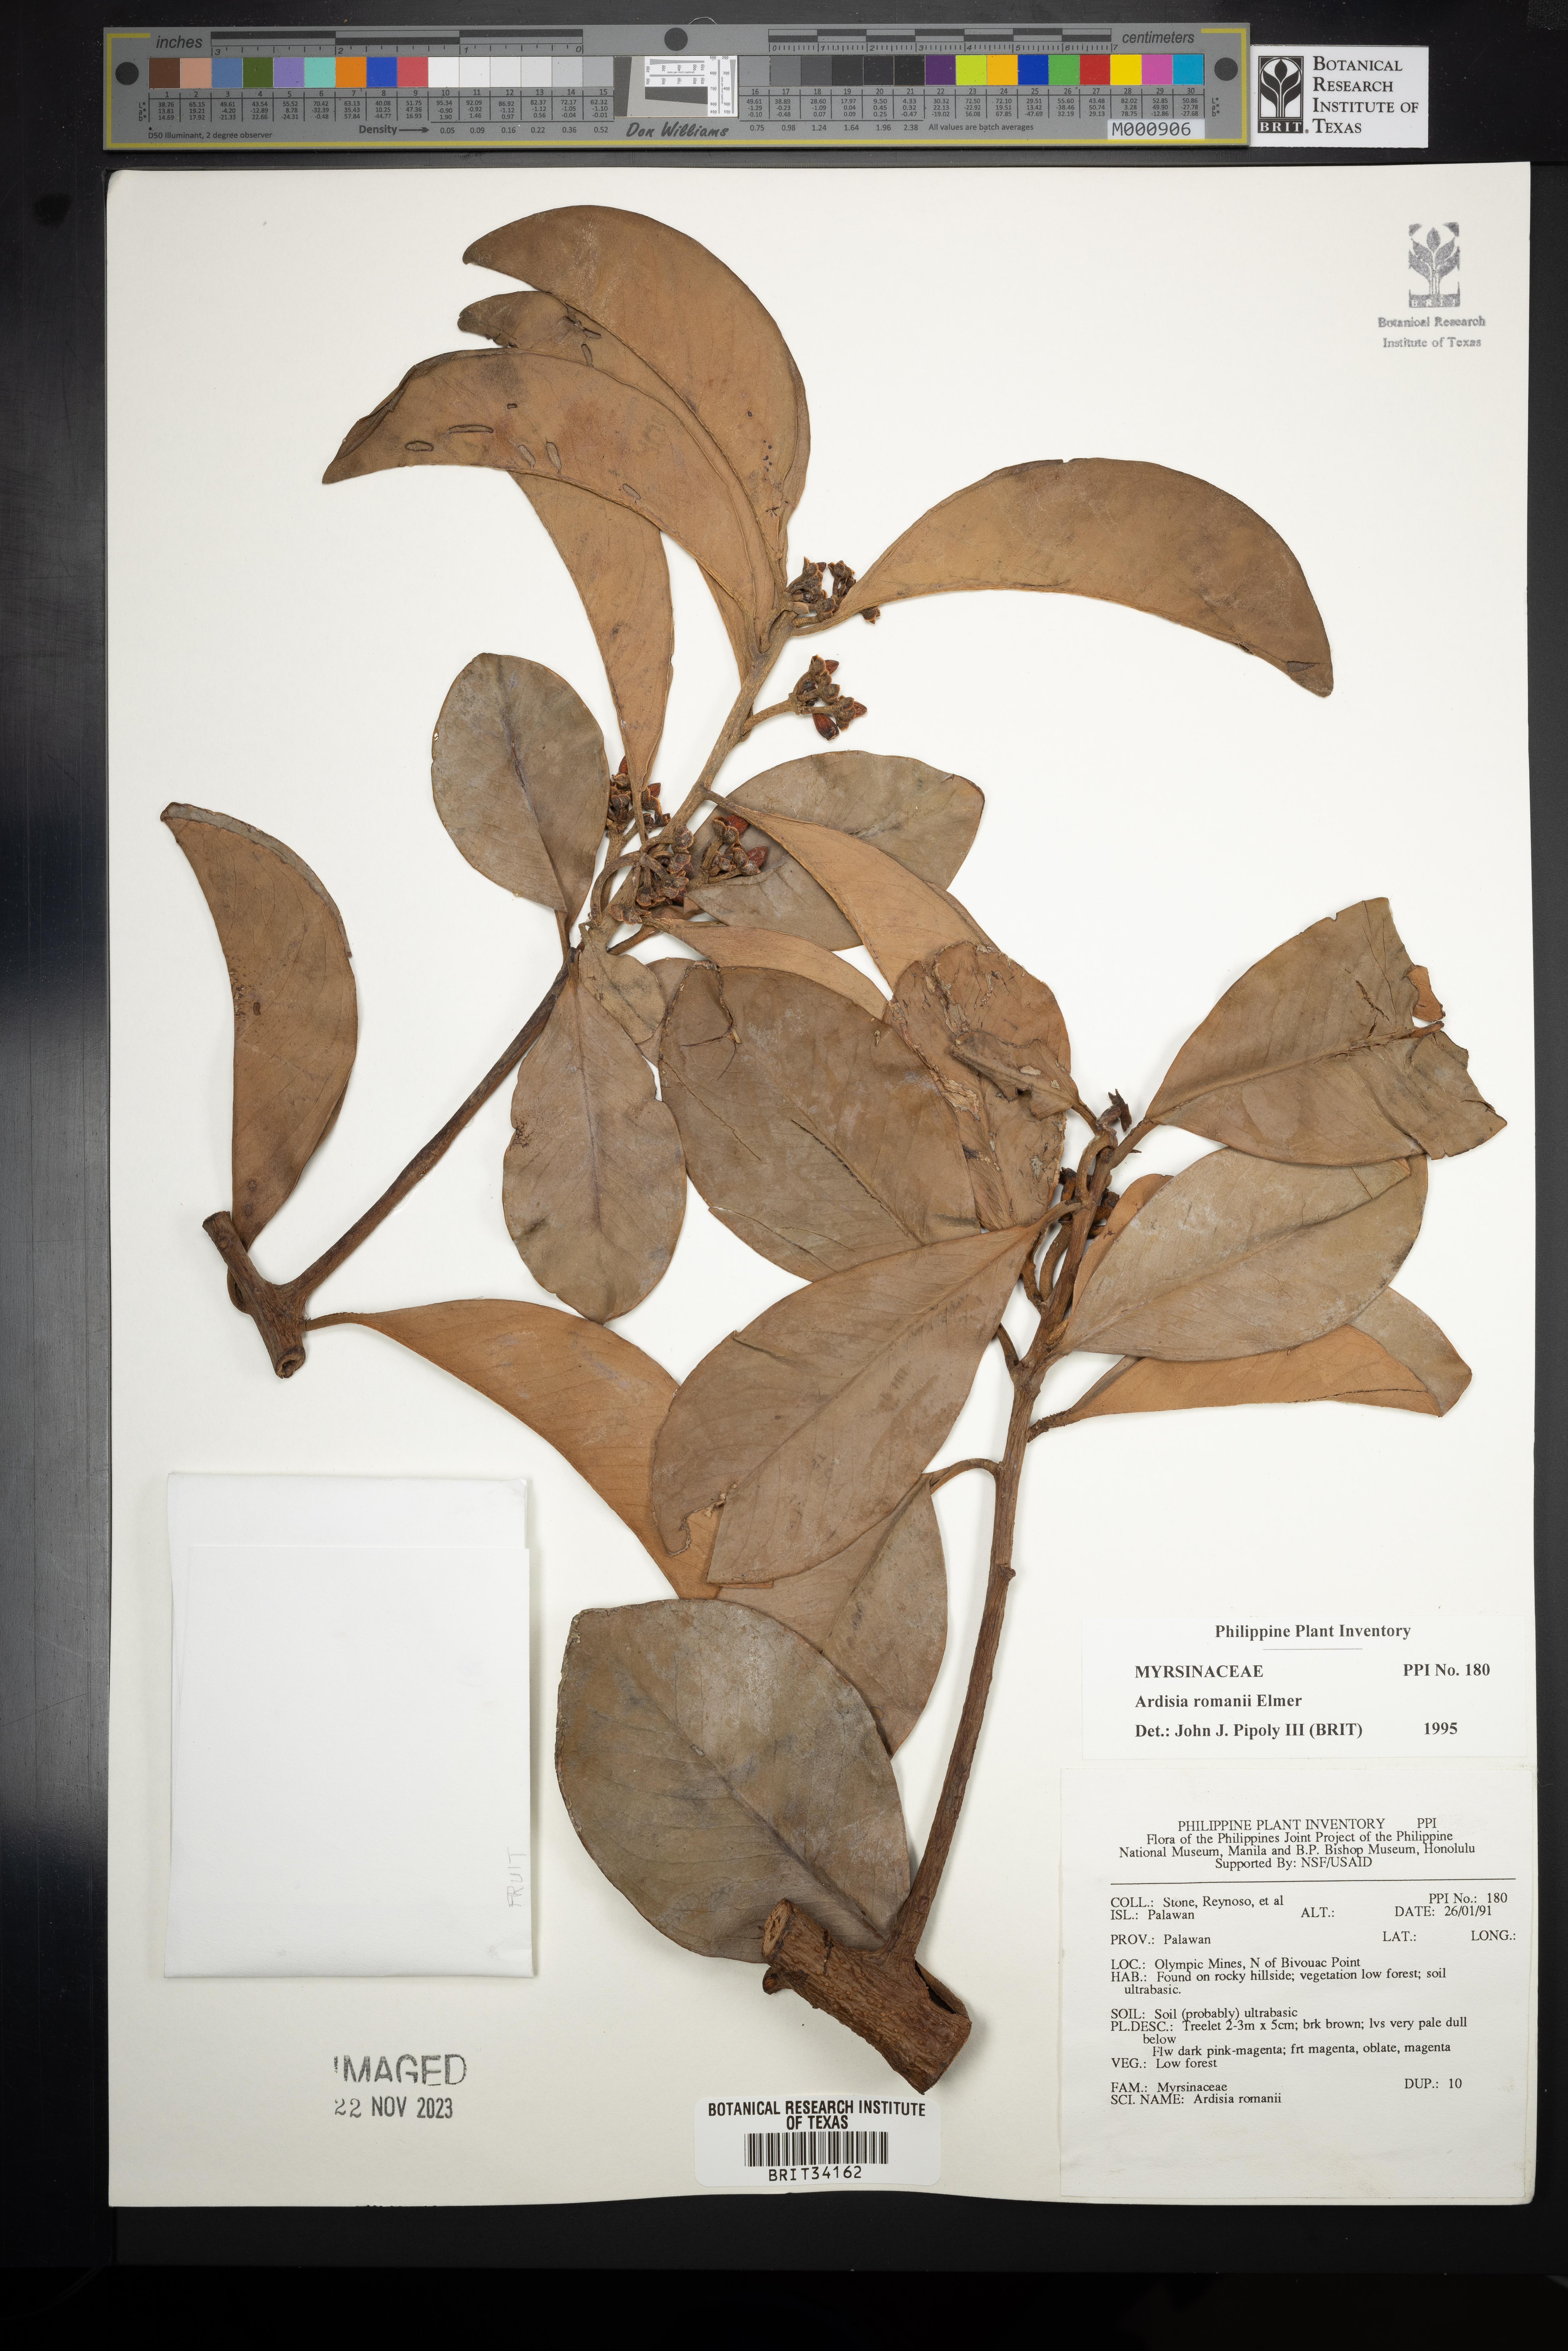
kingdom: Plantae
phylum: Tracheophyta
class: Magnoliopsida
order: Ericales
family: Primulaceae
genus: Ardisia
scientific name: Ardisia romanii
